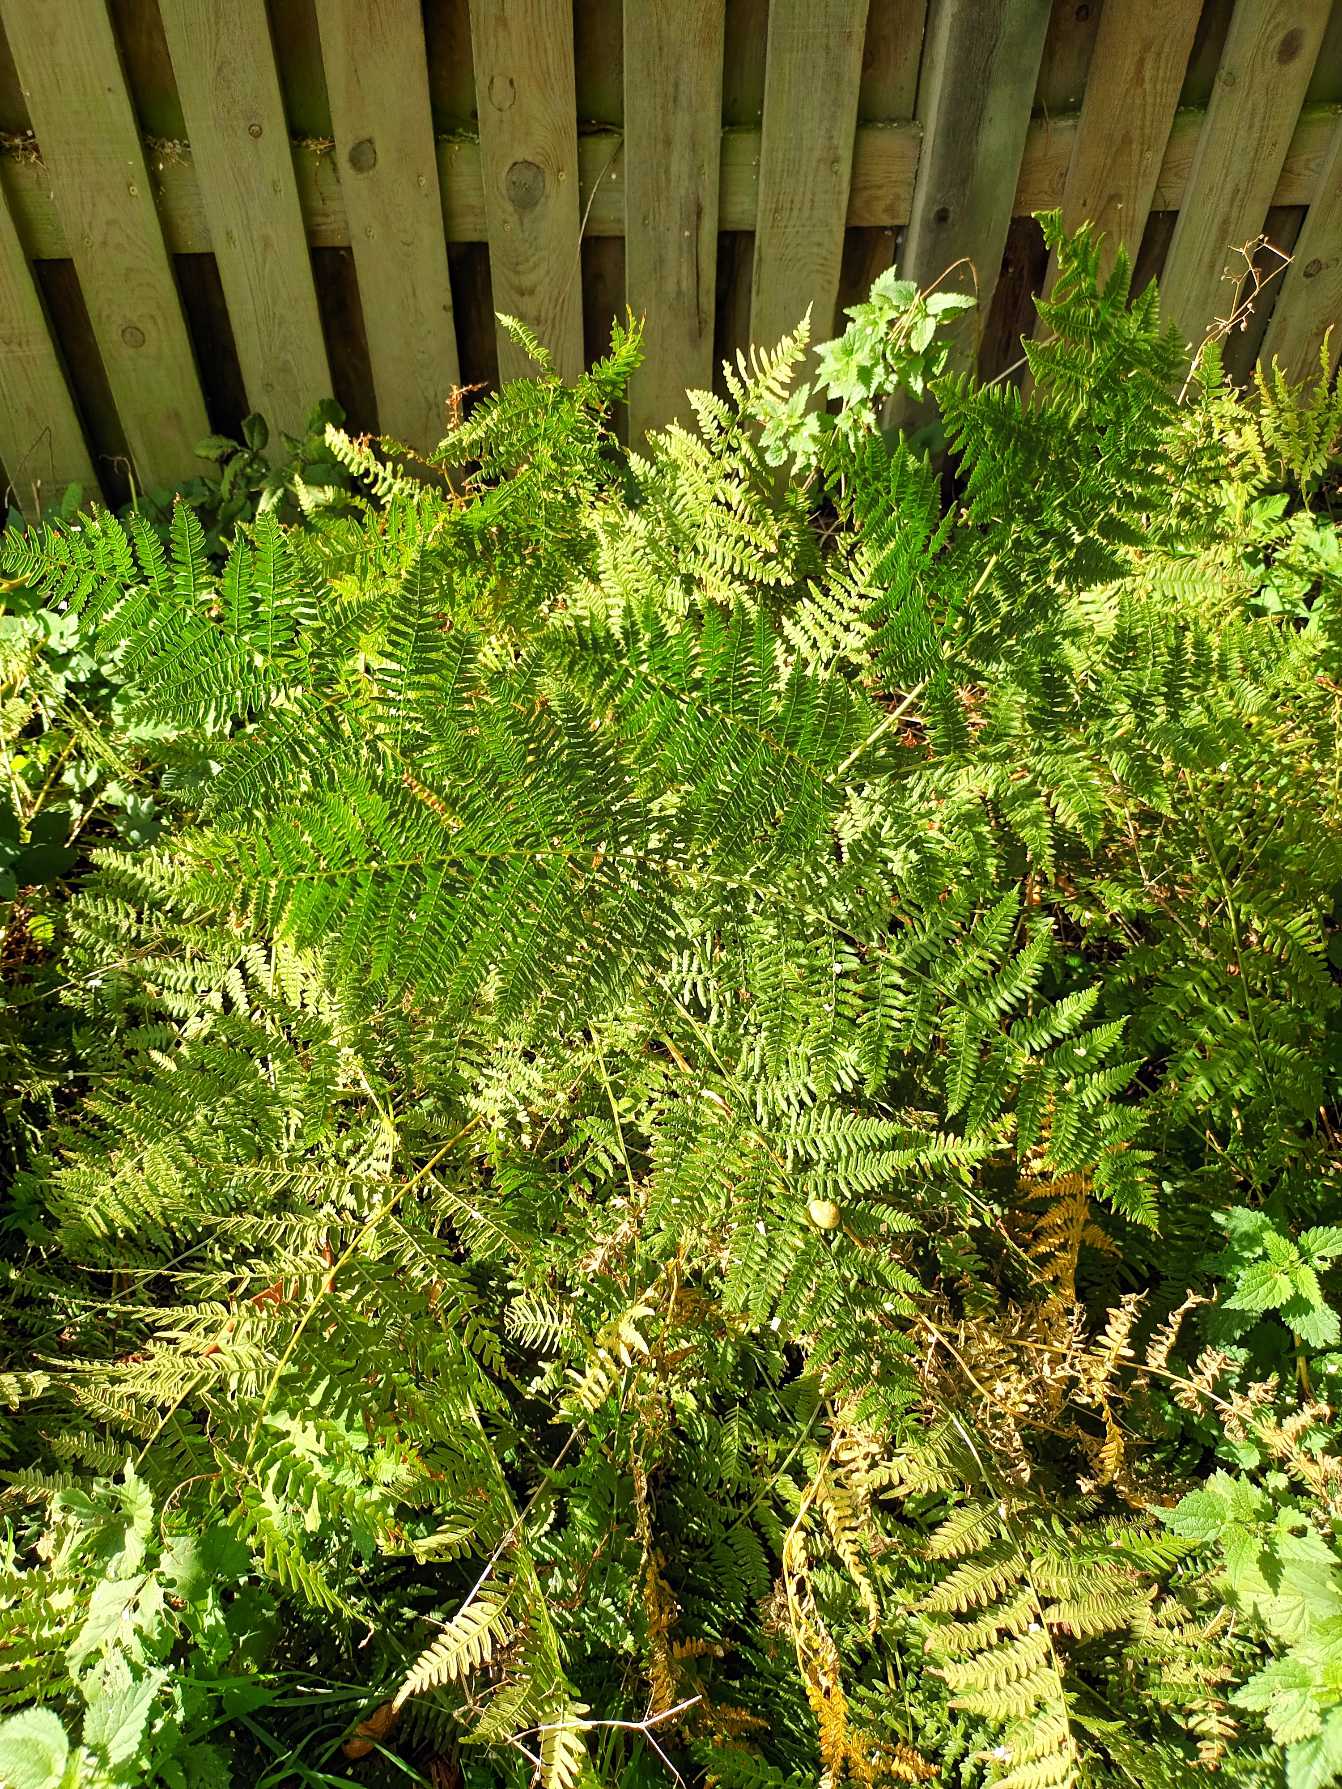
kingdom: Plantae
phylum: Tracheophyta
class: Polypodiopsida
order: Polypodiales
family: Dennstaedtiaceae
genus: Pteridium
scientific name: Pteridium aquilinum
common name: Ørnebregne
